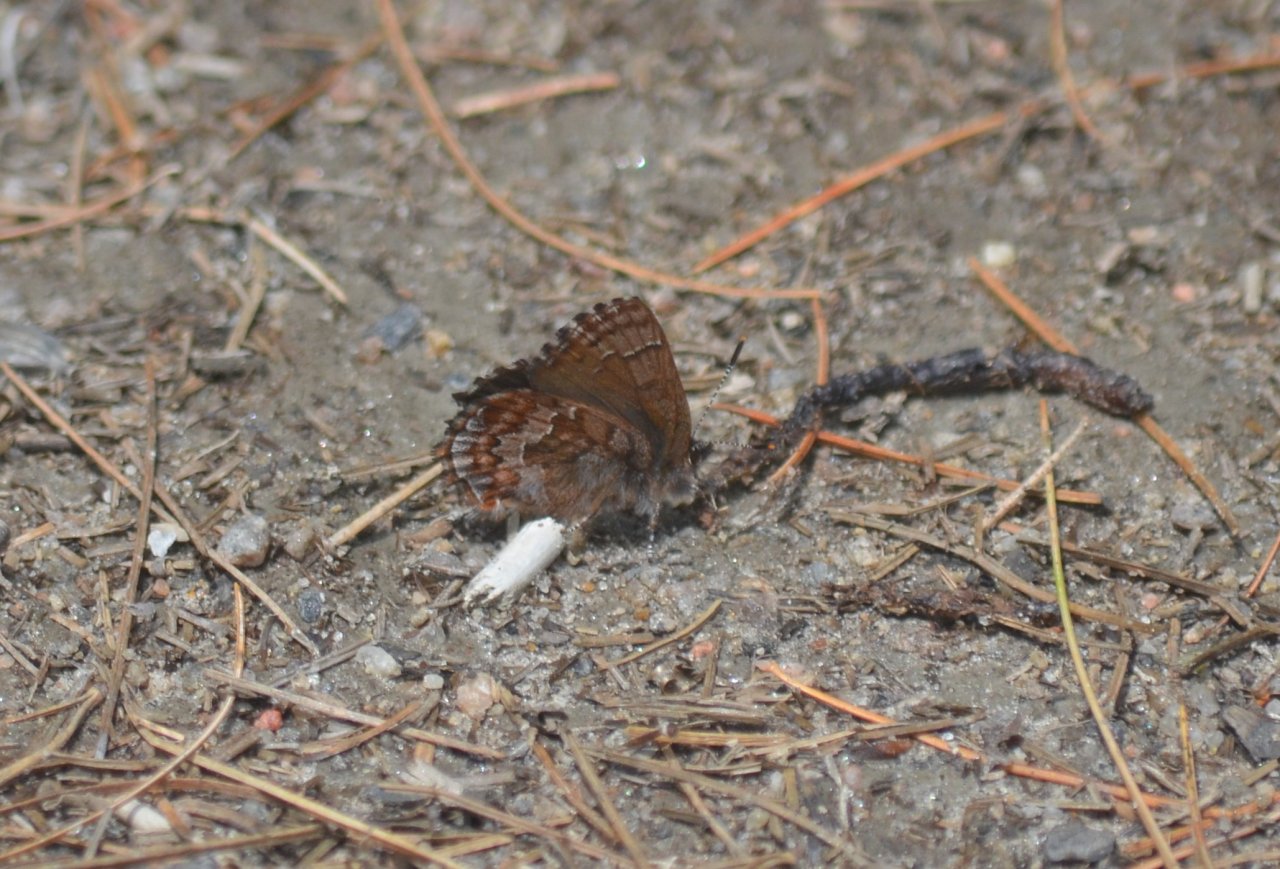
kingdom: Animalia
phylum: Arthropoda
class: Insecta
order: Lepidoptera
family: Lycaenidae
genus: Incisalia
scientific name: Incisalia eryphon
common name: Western Pine Elfin
